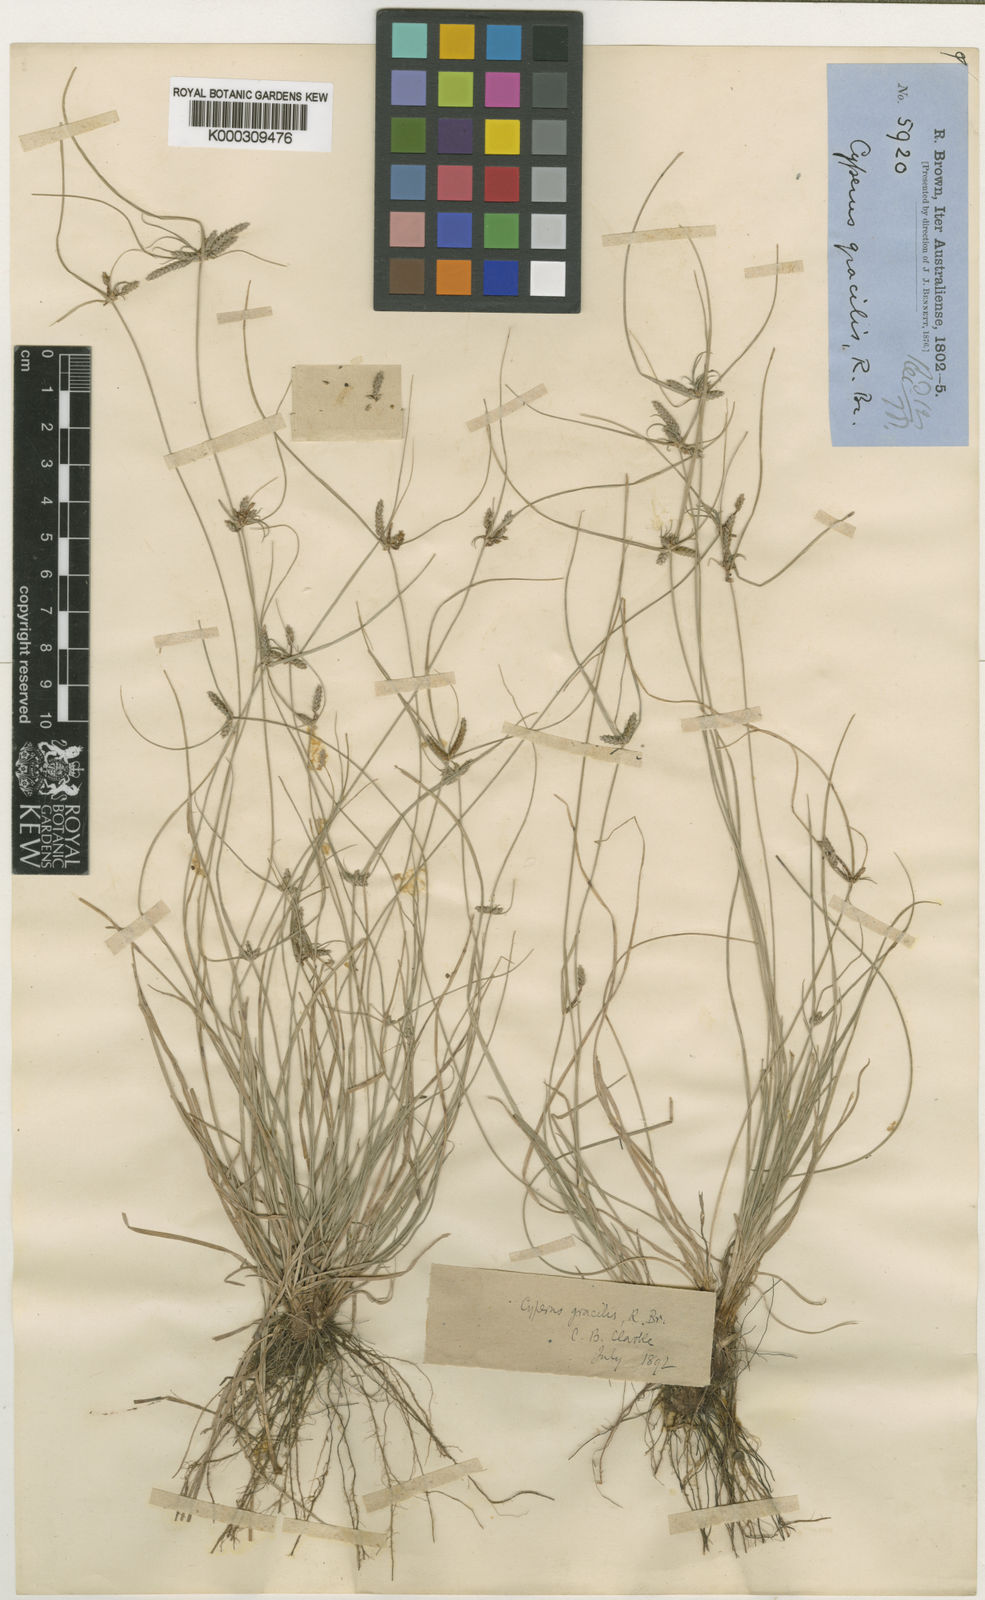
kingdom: Plantae
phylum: Tracheophyta
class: Liliopsida
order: Poales
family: Cyperaceae
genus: Cyperus
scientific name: Cyperus gracilis
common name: Slimjim flatsedge
